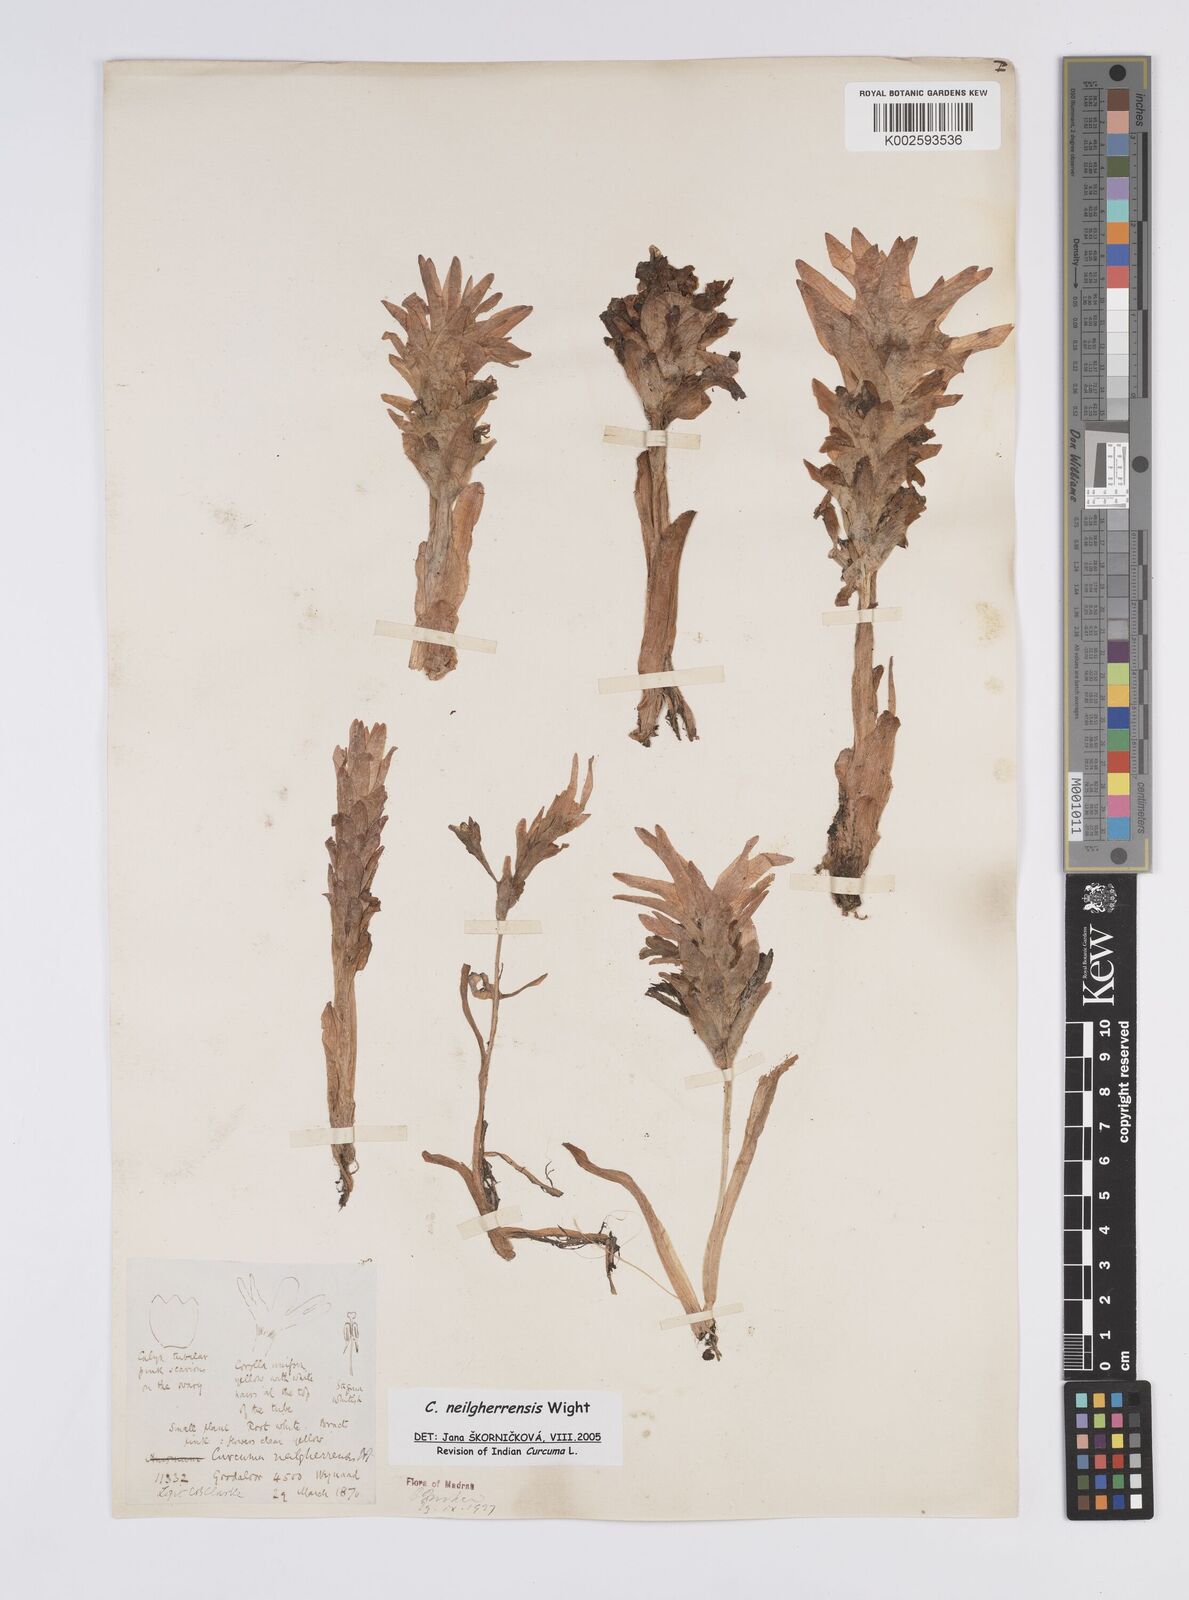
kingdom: Plantae
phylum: Tracheophyta
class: Liliopsida
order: Zingiberales
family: Zingiberaceae
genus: Curcuma
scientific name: Curcuma neilgherrensis
